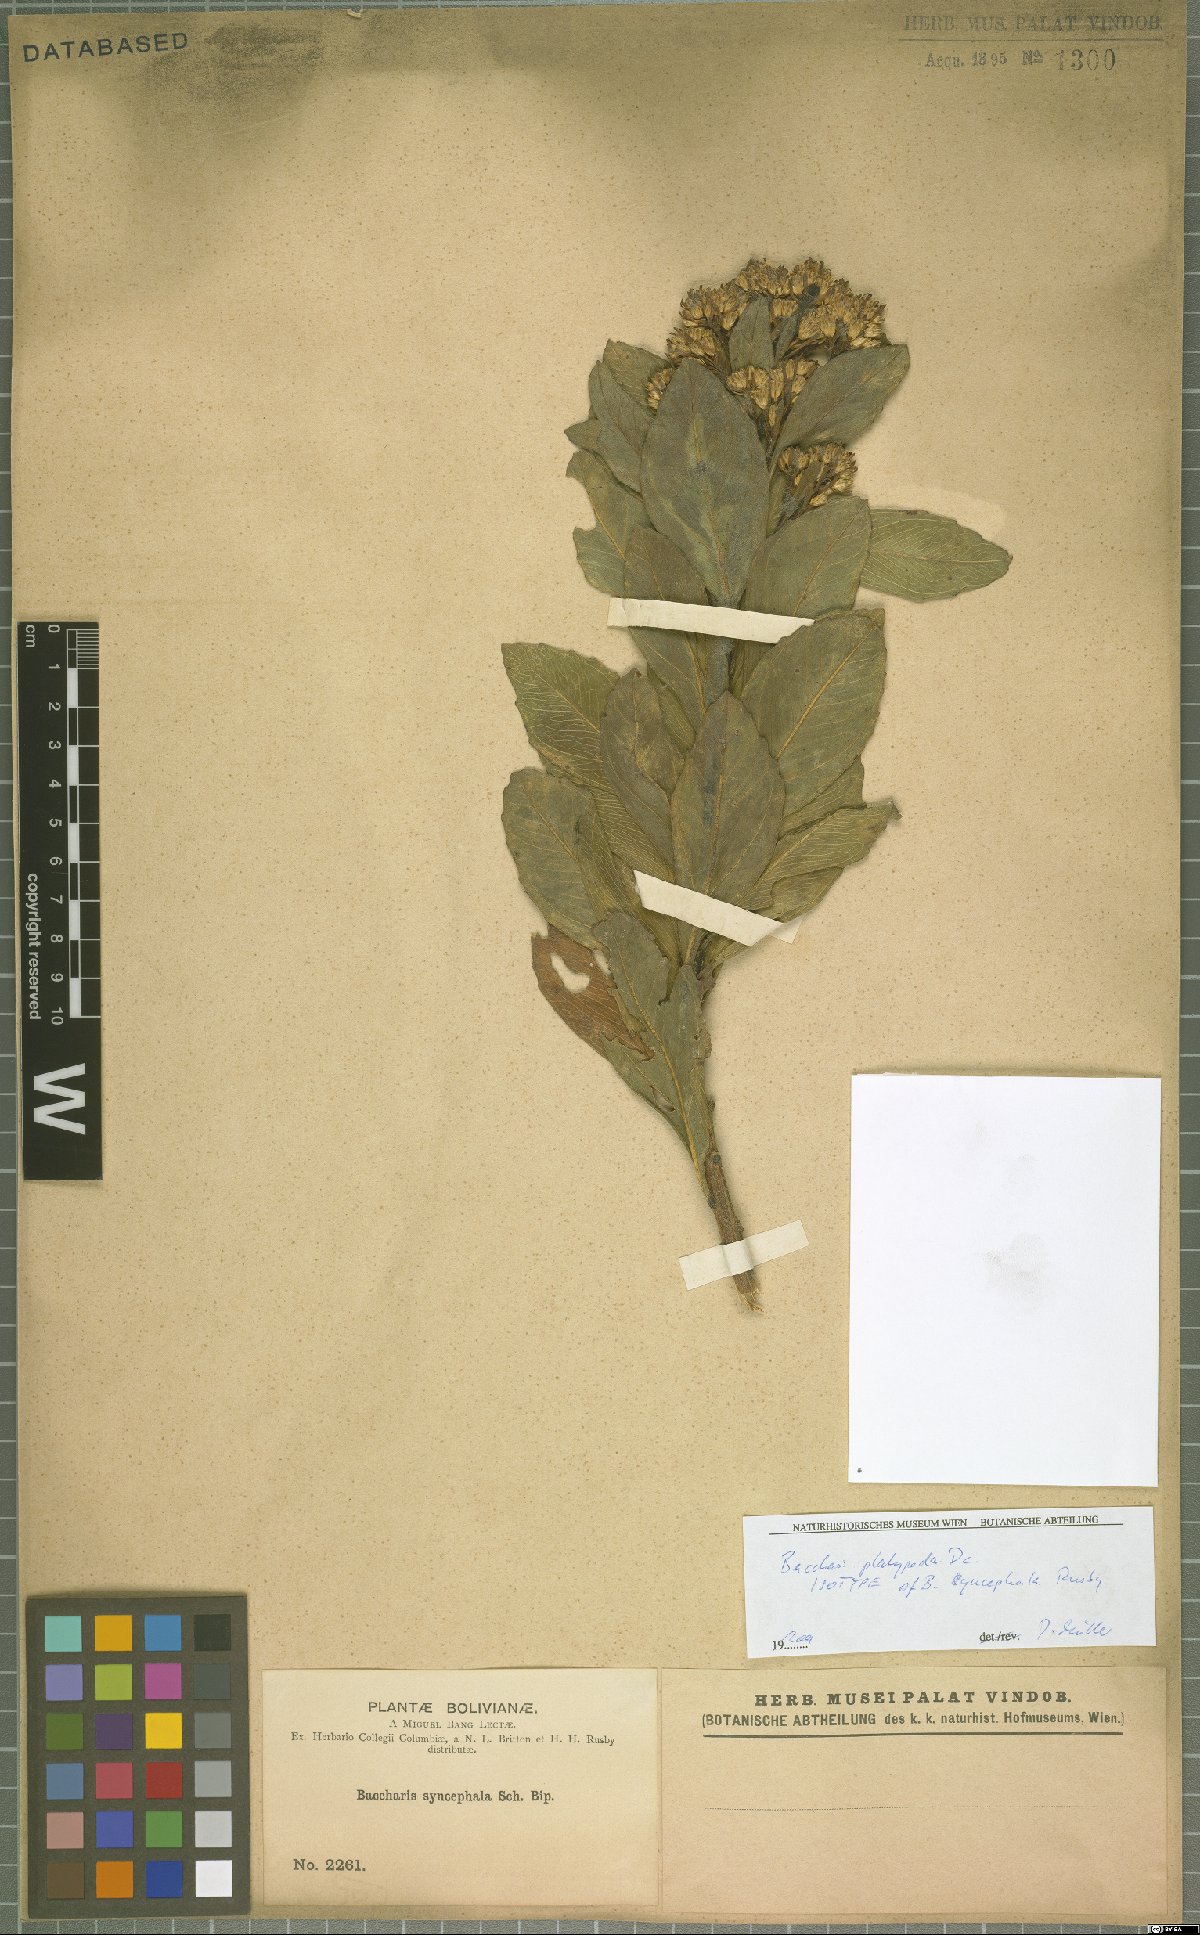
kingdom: Plantae
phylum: Tracheophyta
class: Magnoliopsida
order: Asterales
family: Asteraceae
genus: Baccharis
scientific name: Baccharis platypoda
